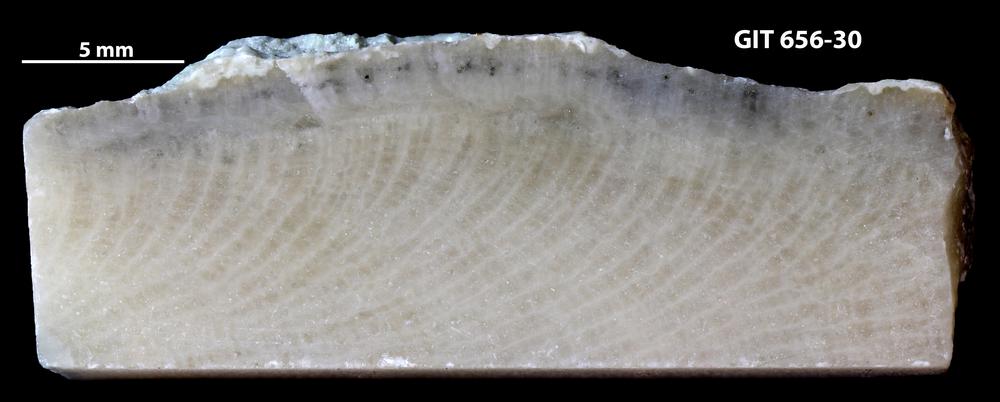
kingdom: Animalia
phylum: Cnidaria
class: Anthozoa
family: Theciidae
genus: Laceripora
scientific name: Laceripora
